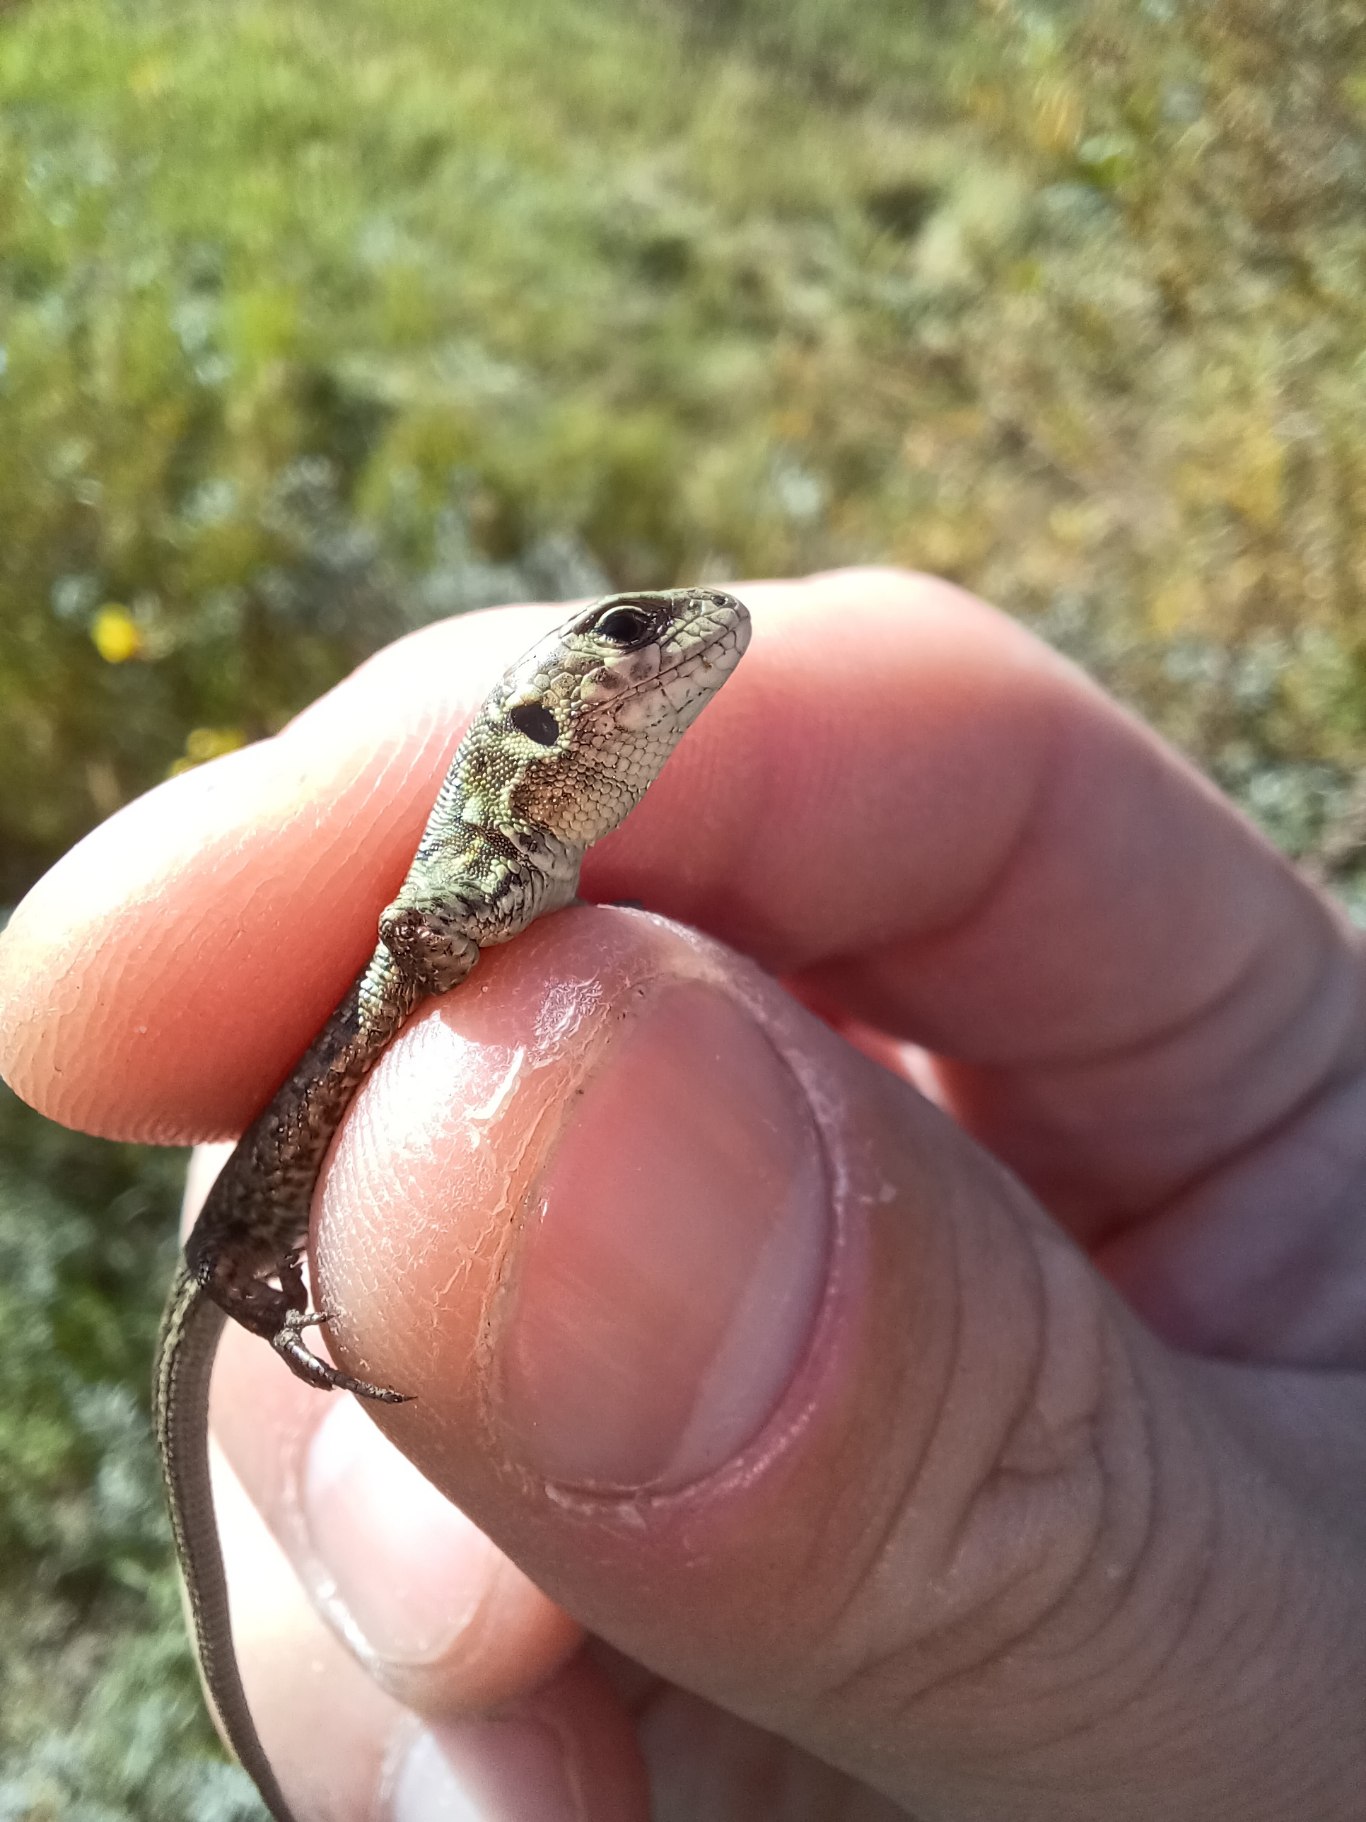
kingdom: Animalia
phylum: Chordata
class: Squamata
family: Lacertidae
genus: Lacerta
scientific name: Lacerta agilis
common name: Markfirben
